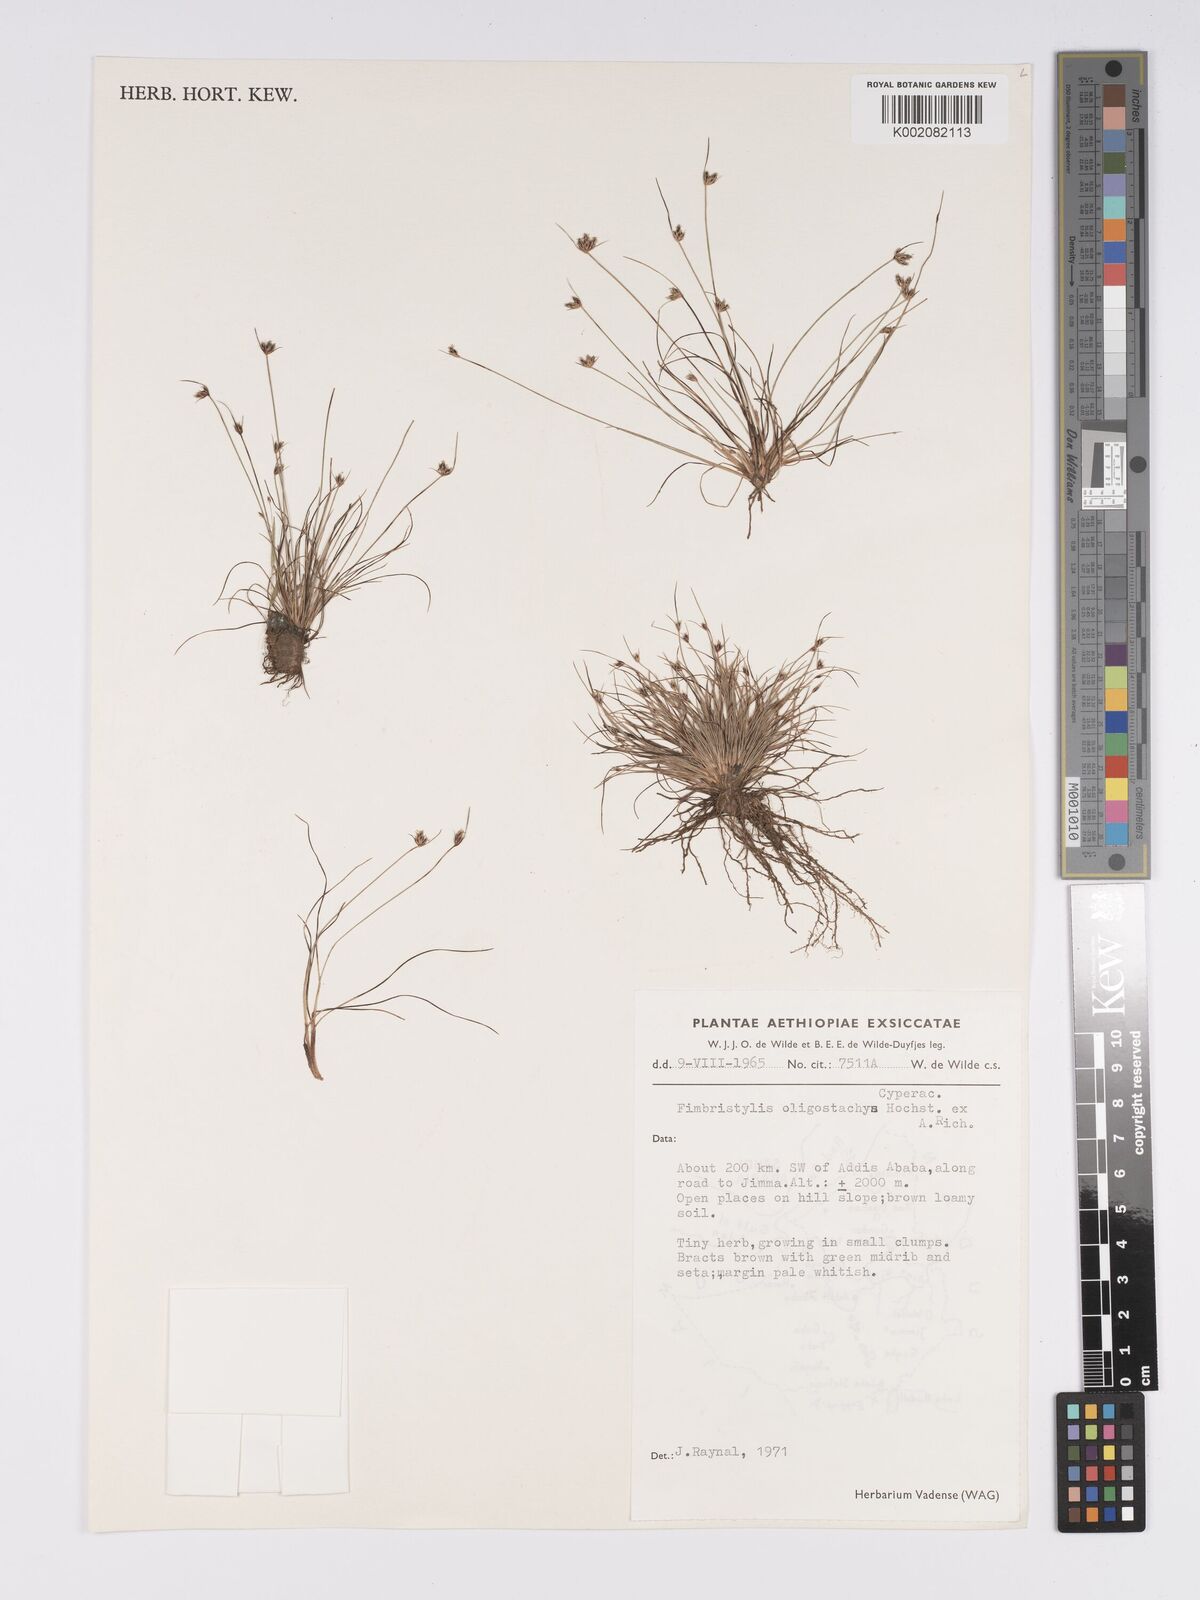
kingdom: Plantae
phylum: Tracheophyta
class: Liliopsida
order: Poales
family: Cyperaceae
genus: Bulbostylis
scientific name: Bulbostylis oligostachys
